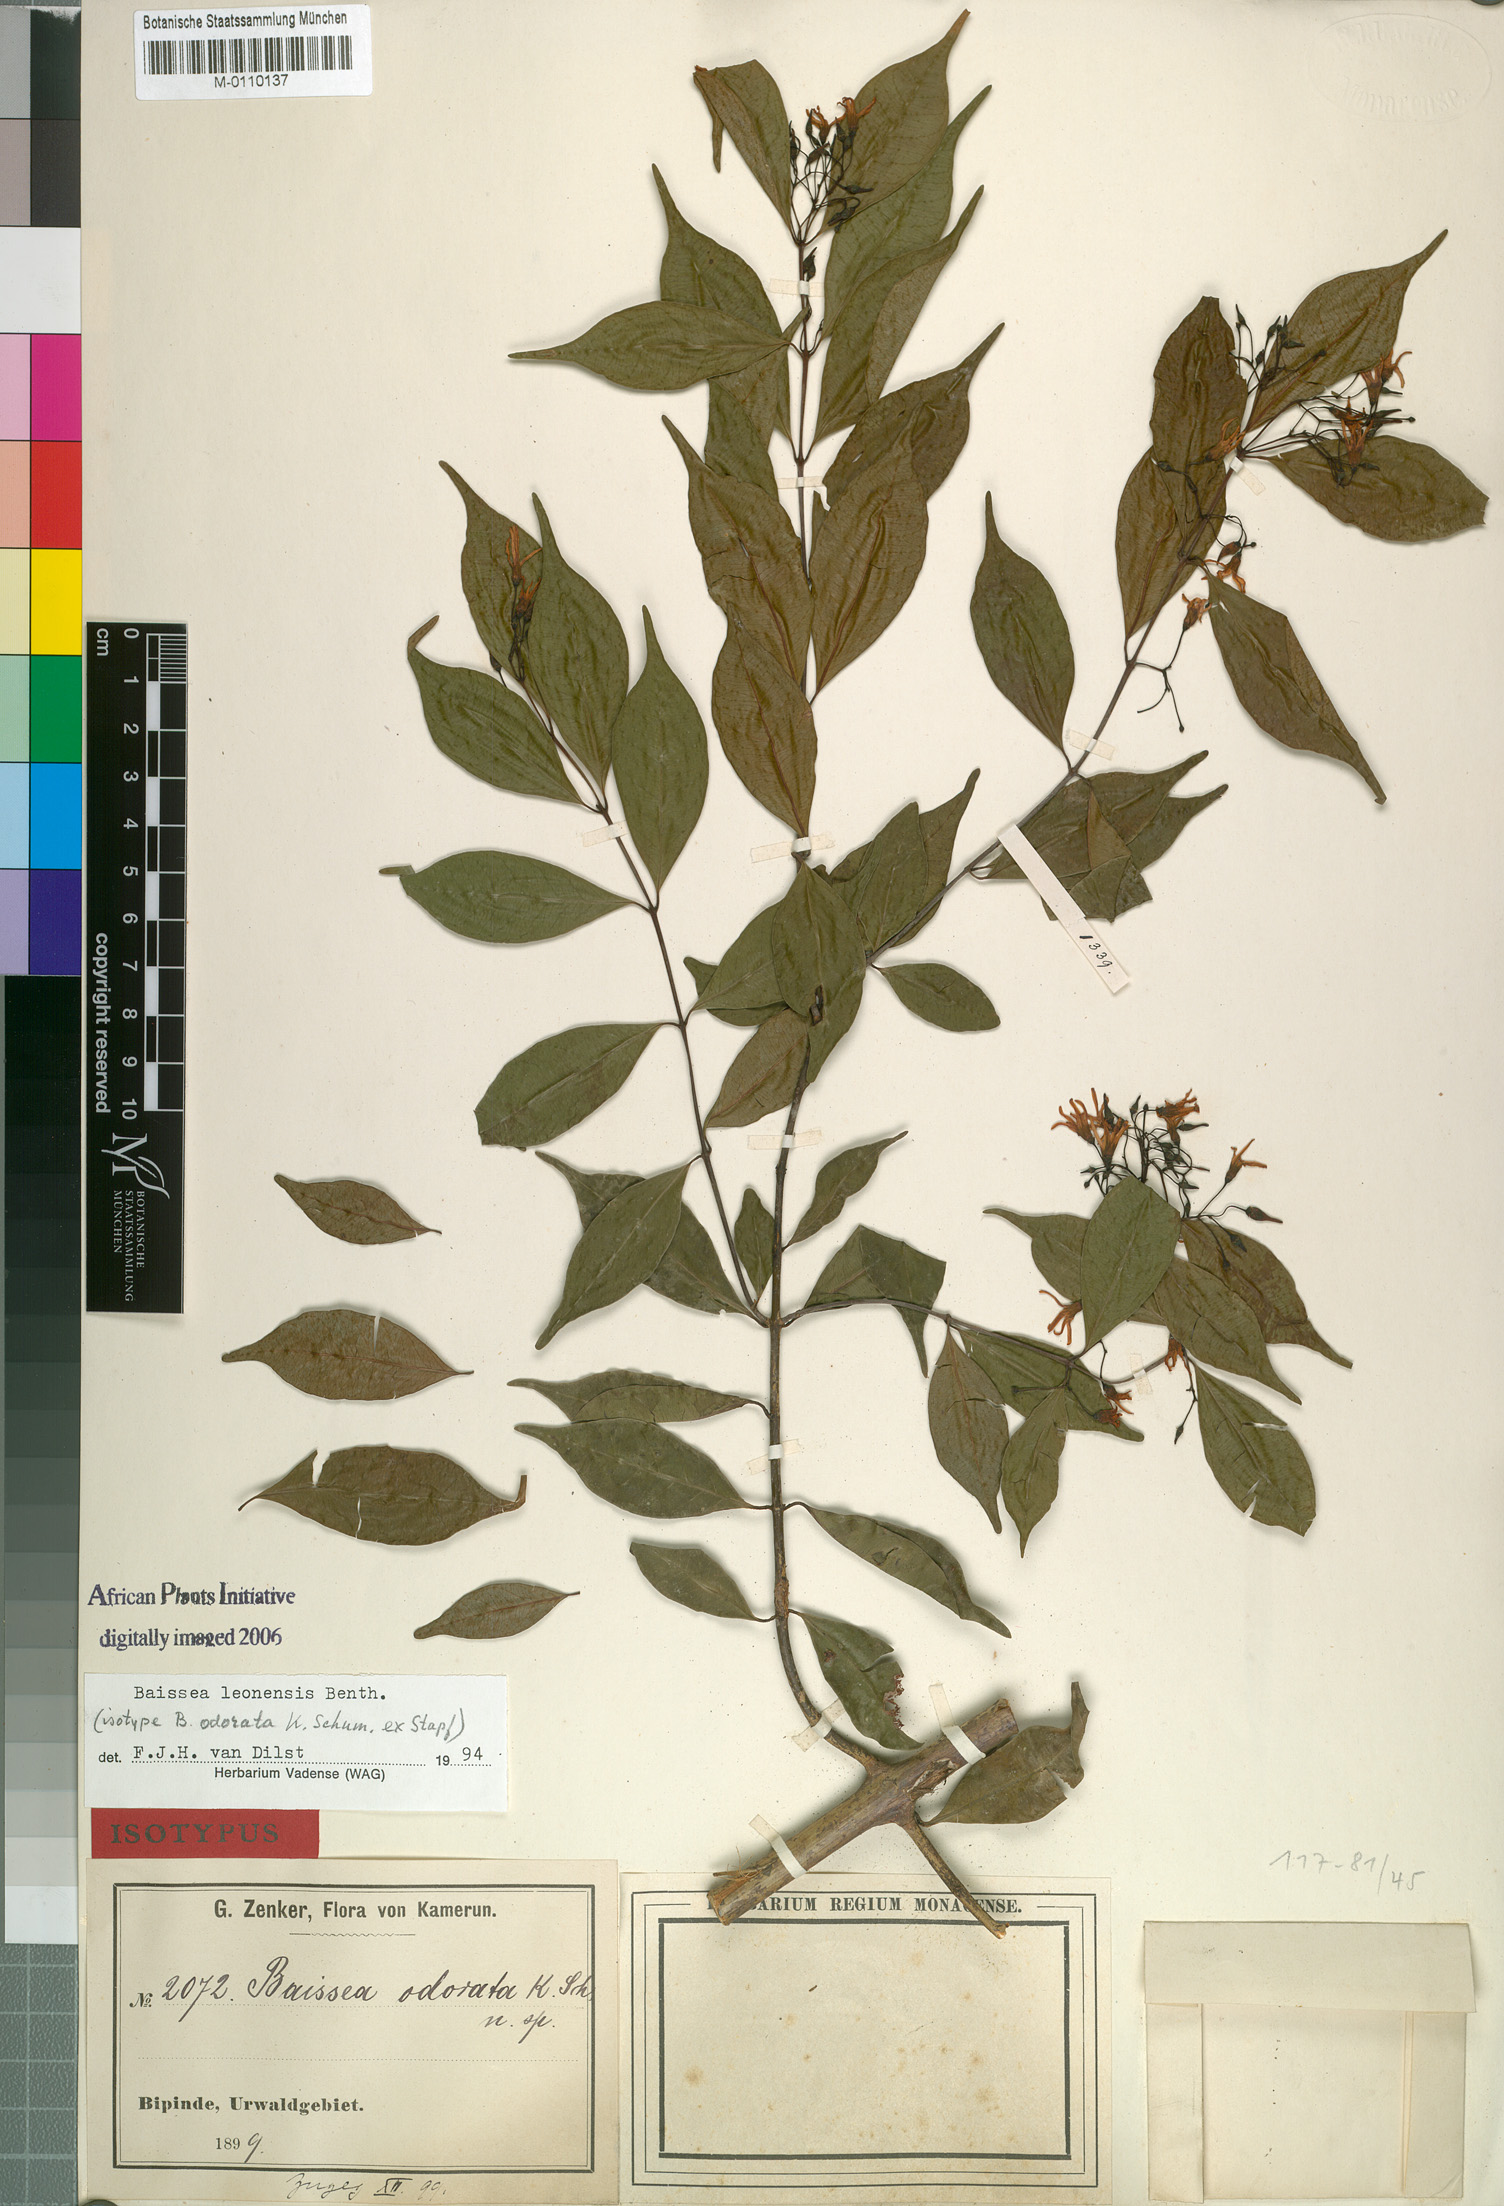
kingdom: Plantae
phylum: Tracheophyta
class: Magnoliopsida
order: Gentianales
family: Apocynaceae
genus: Baissea
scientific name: Baissea leonensis
